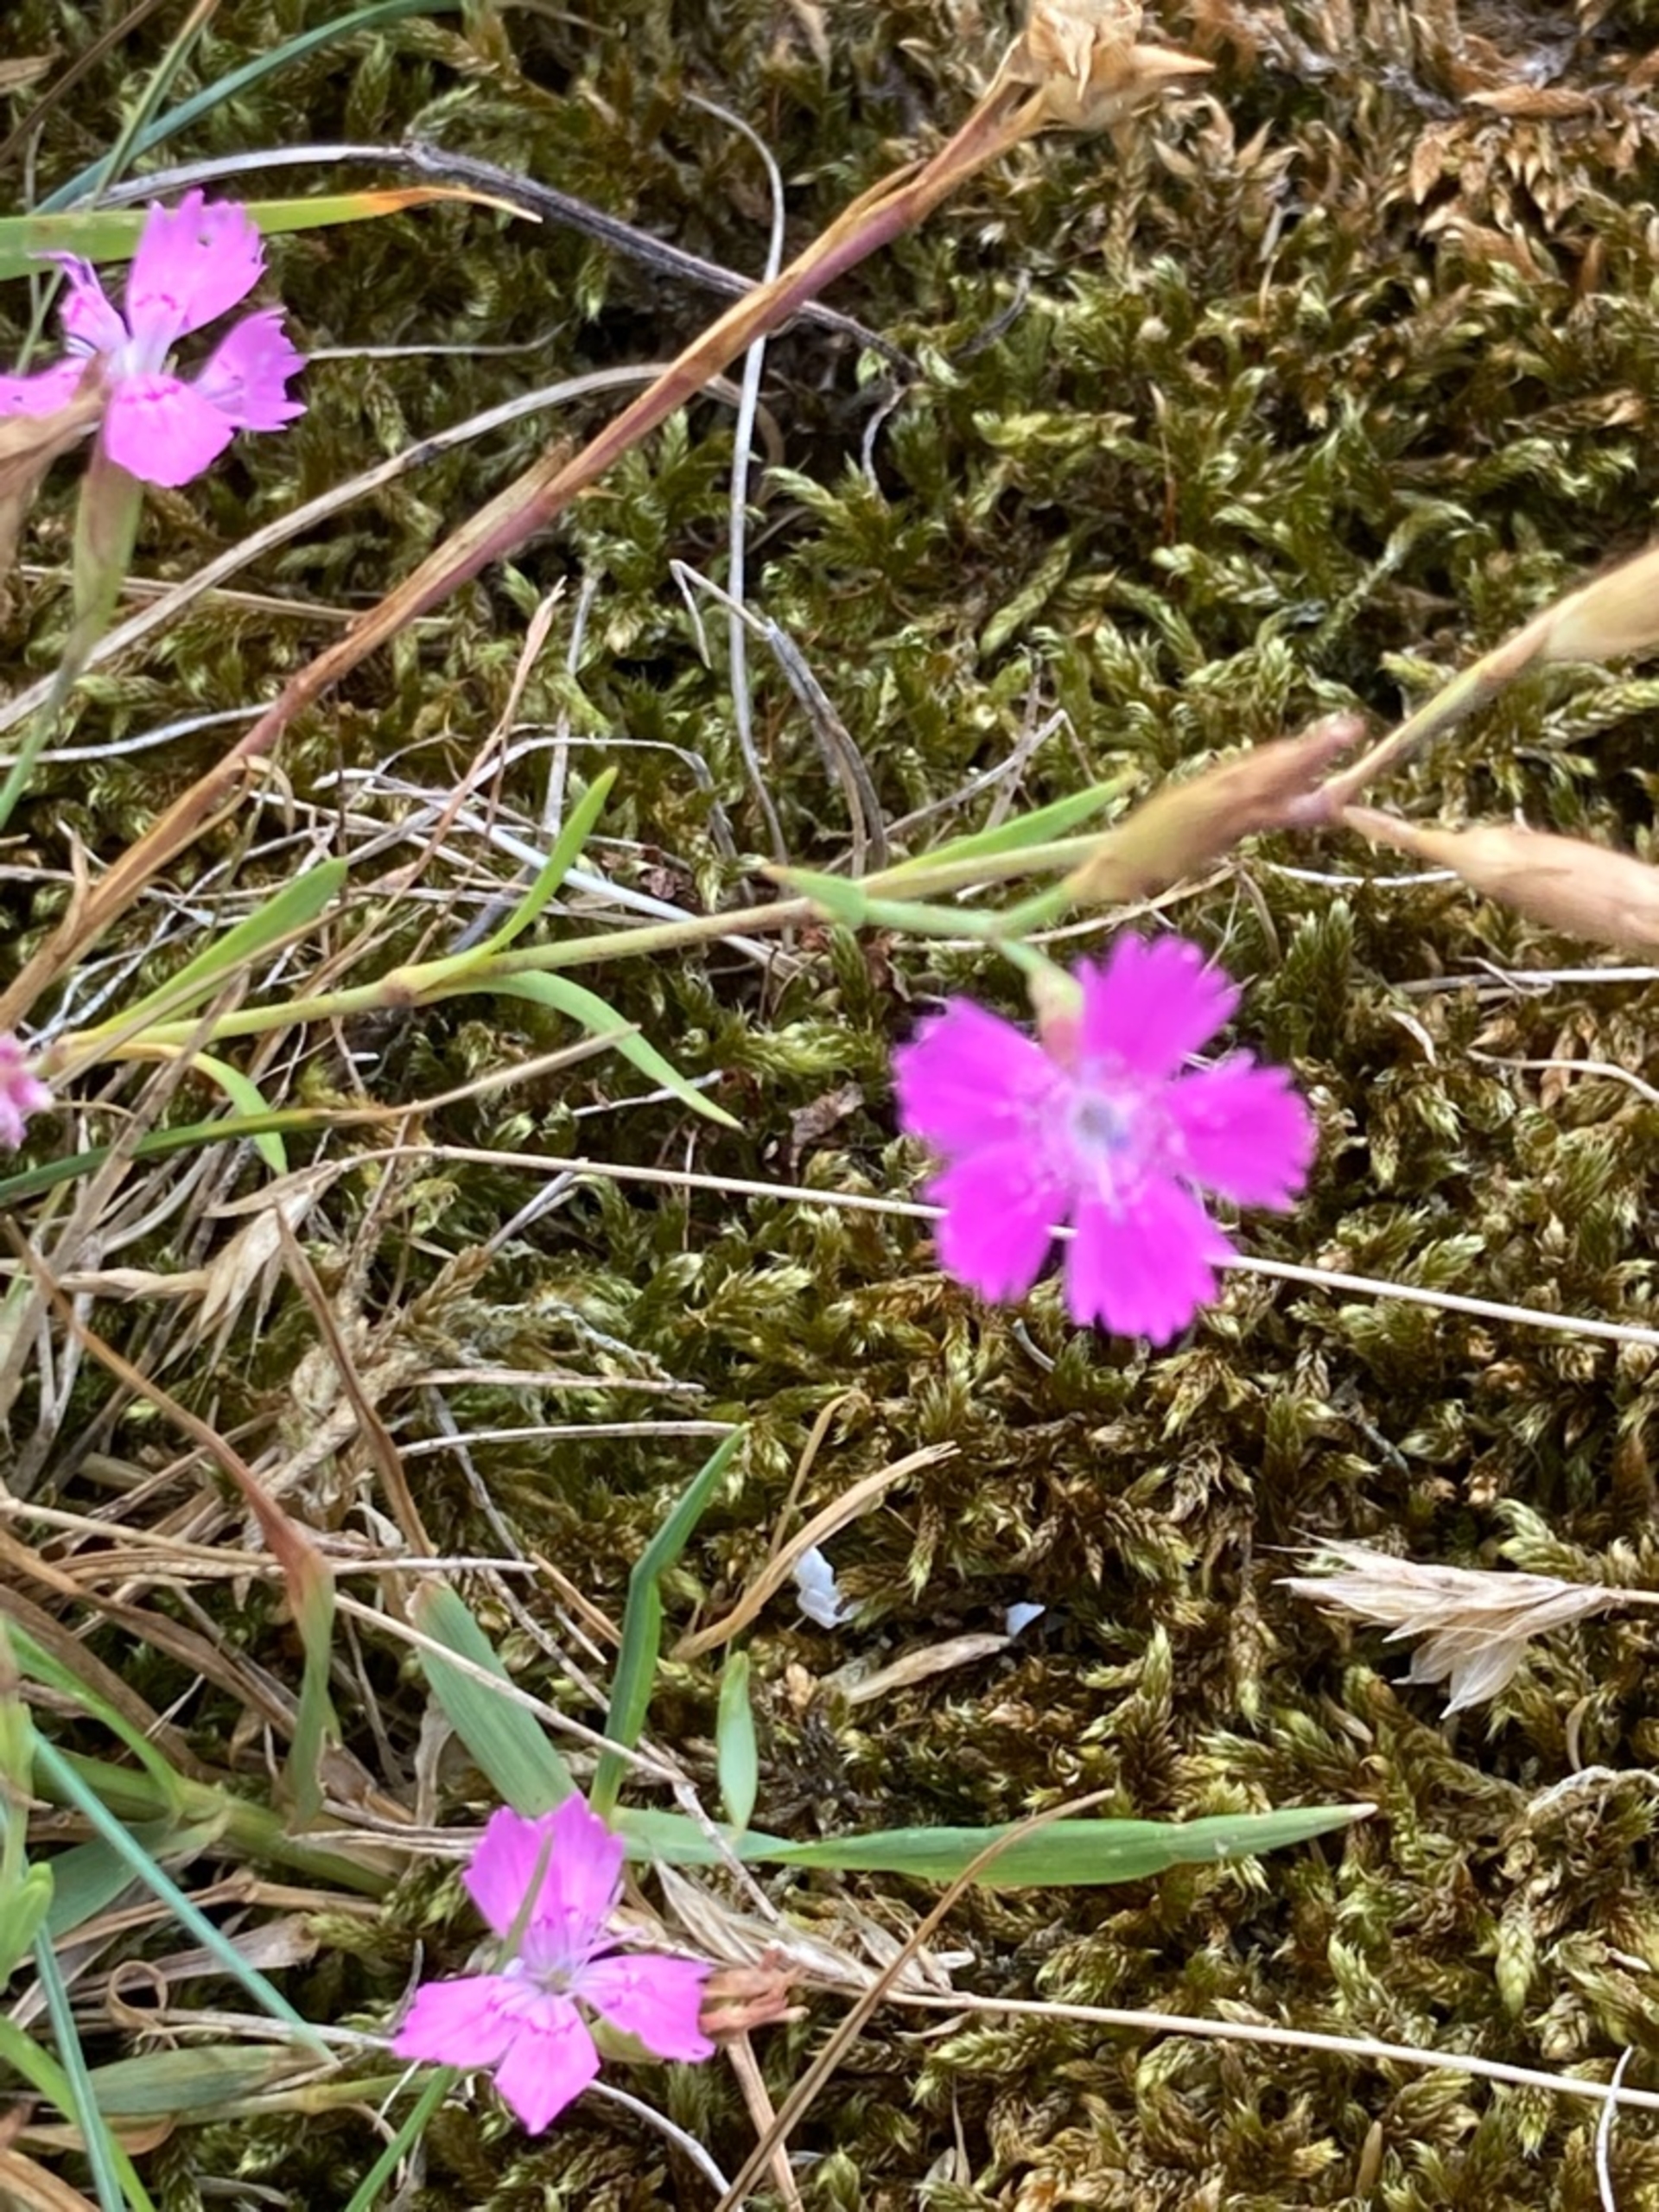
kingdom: Plantae
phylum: Tracheophyta
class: Magnoliopsida
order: Caryophyllales
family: Caryophyllaceae
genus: Dianthus
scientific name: Dianthus deltoides
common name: Bakke-nellike
